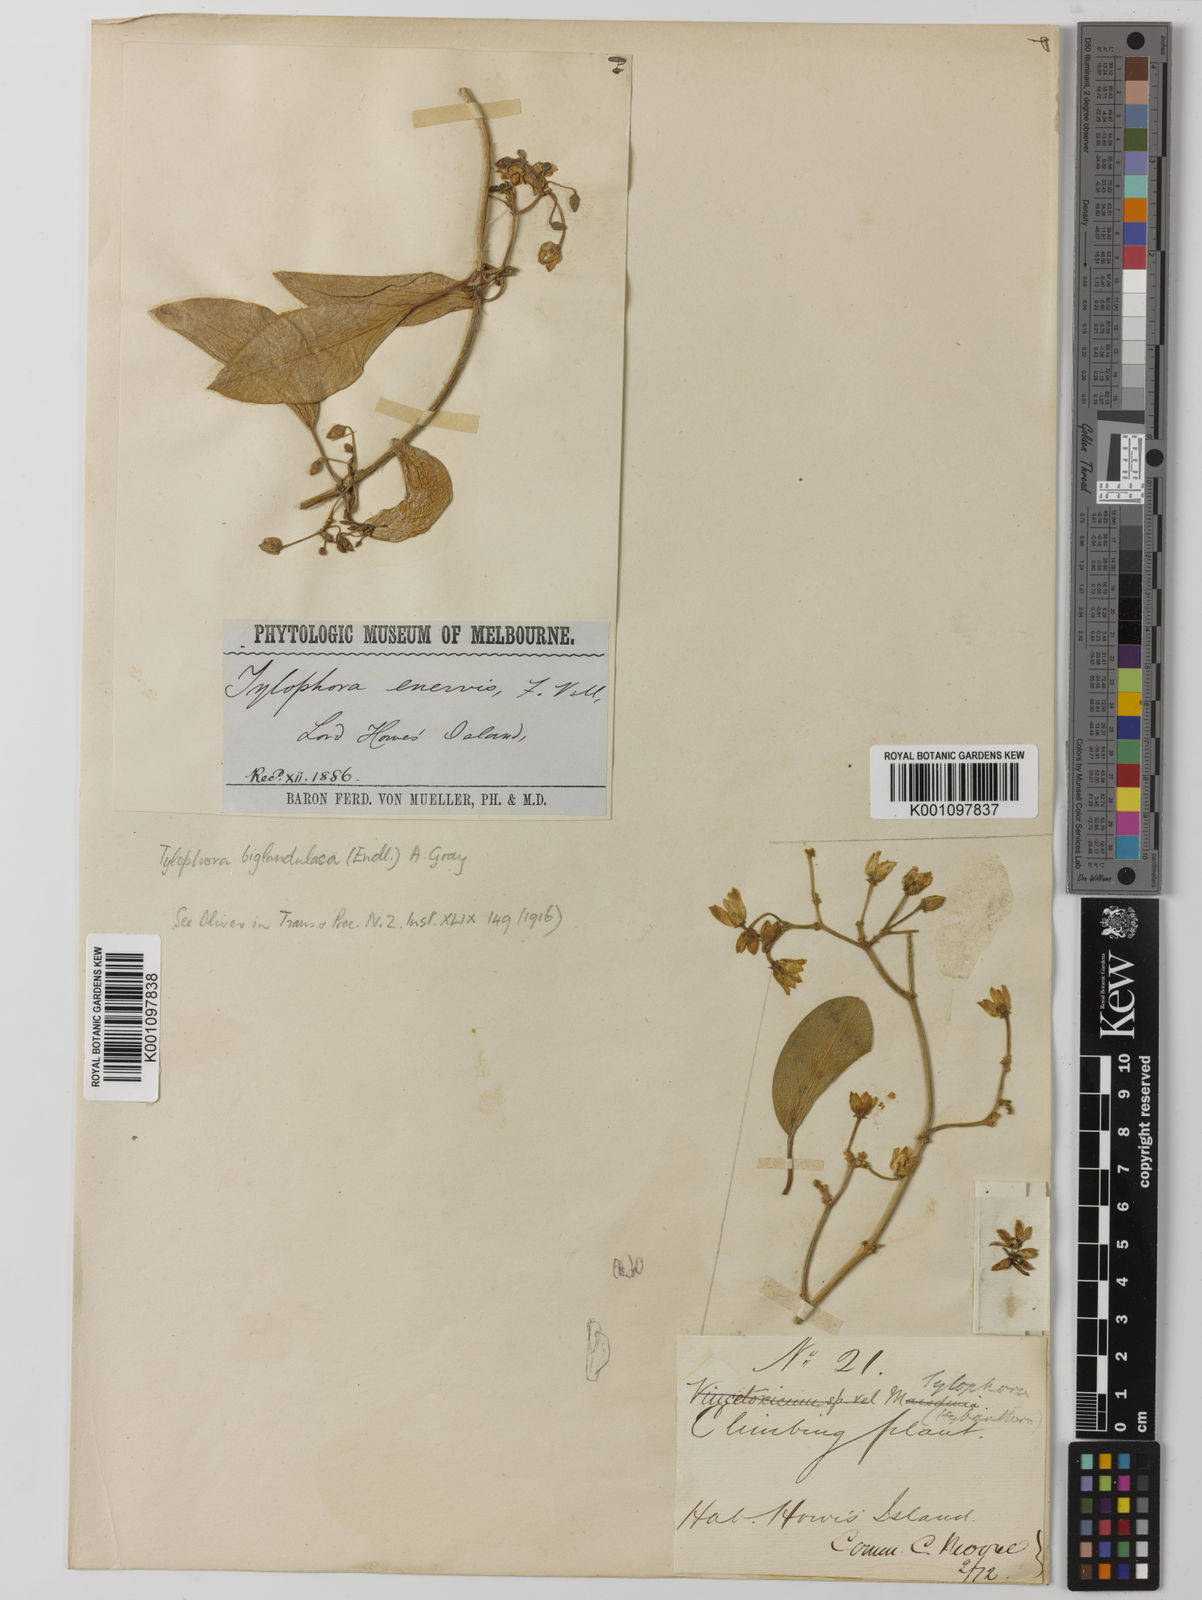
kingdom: Plantae
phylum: Tracheophyta
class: Magnoliopsida
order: Gentianales
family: Apocynaceae
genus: Vincetoxicum
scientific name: Vincetoxicum biglandulosum
